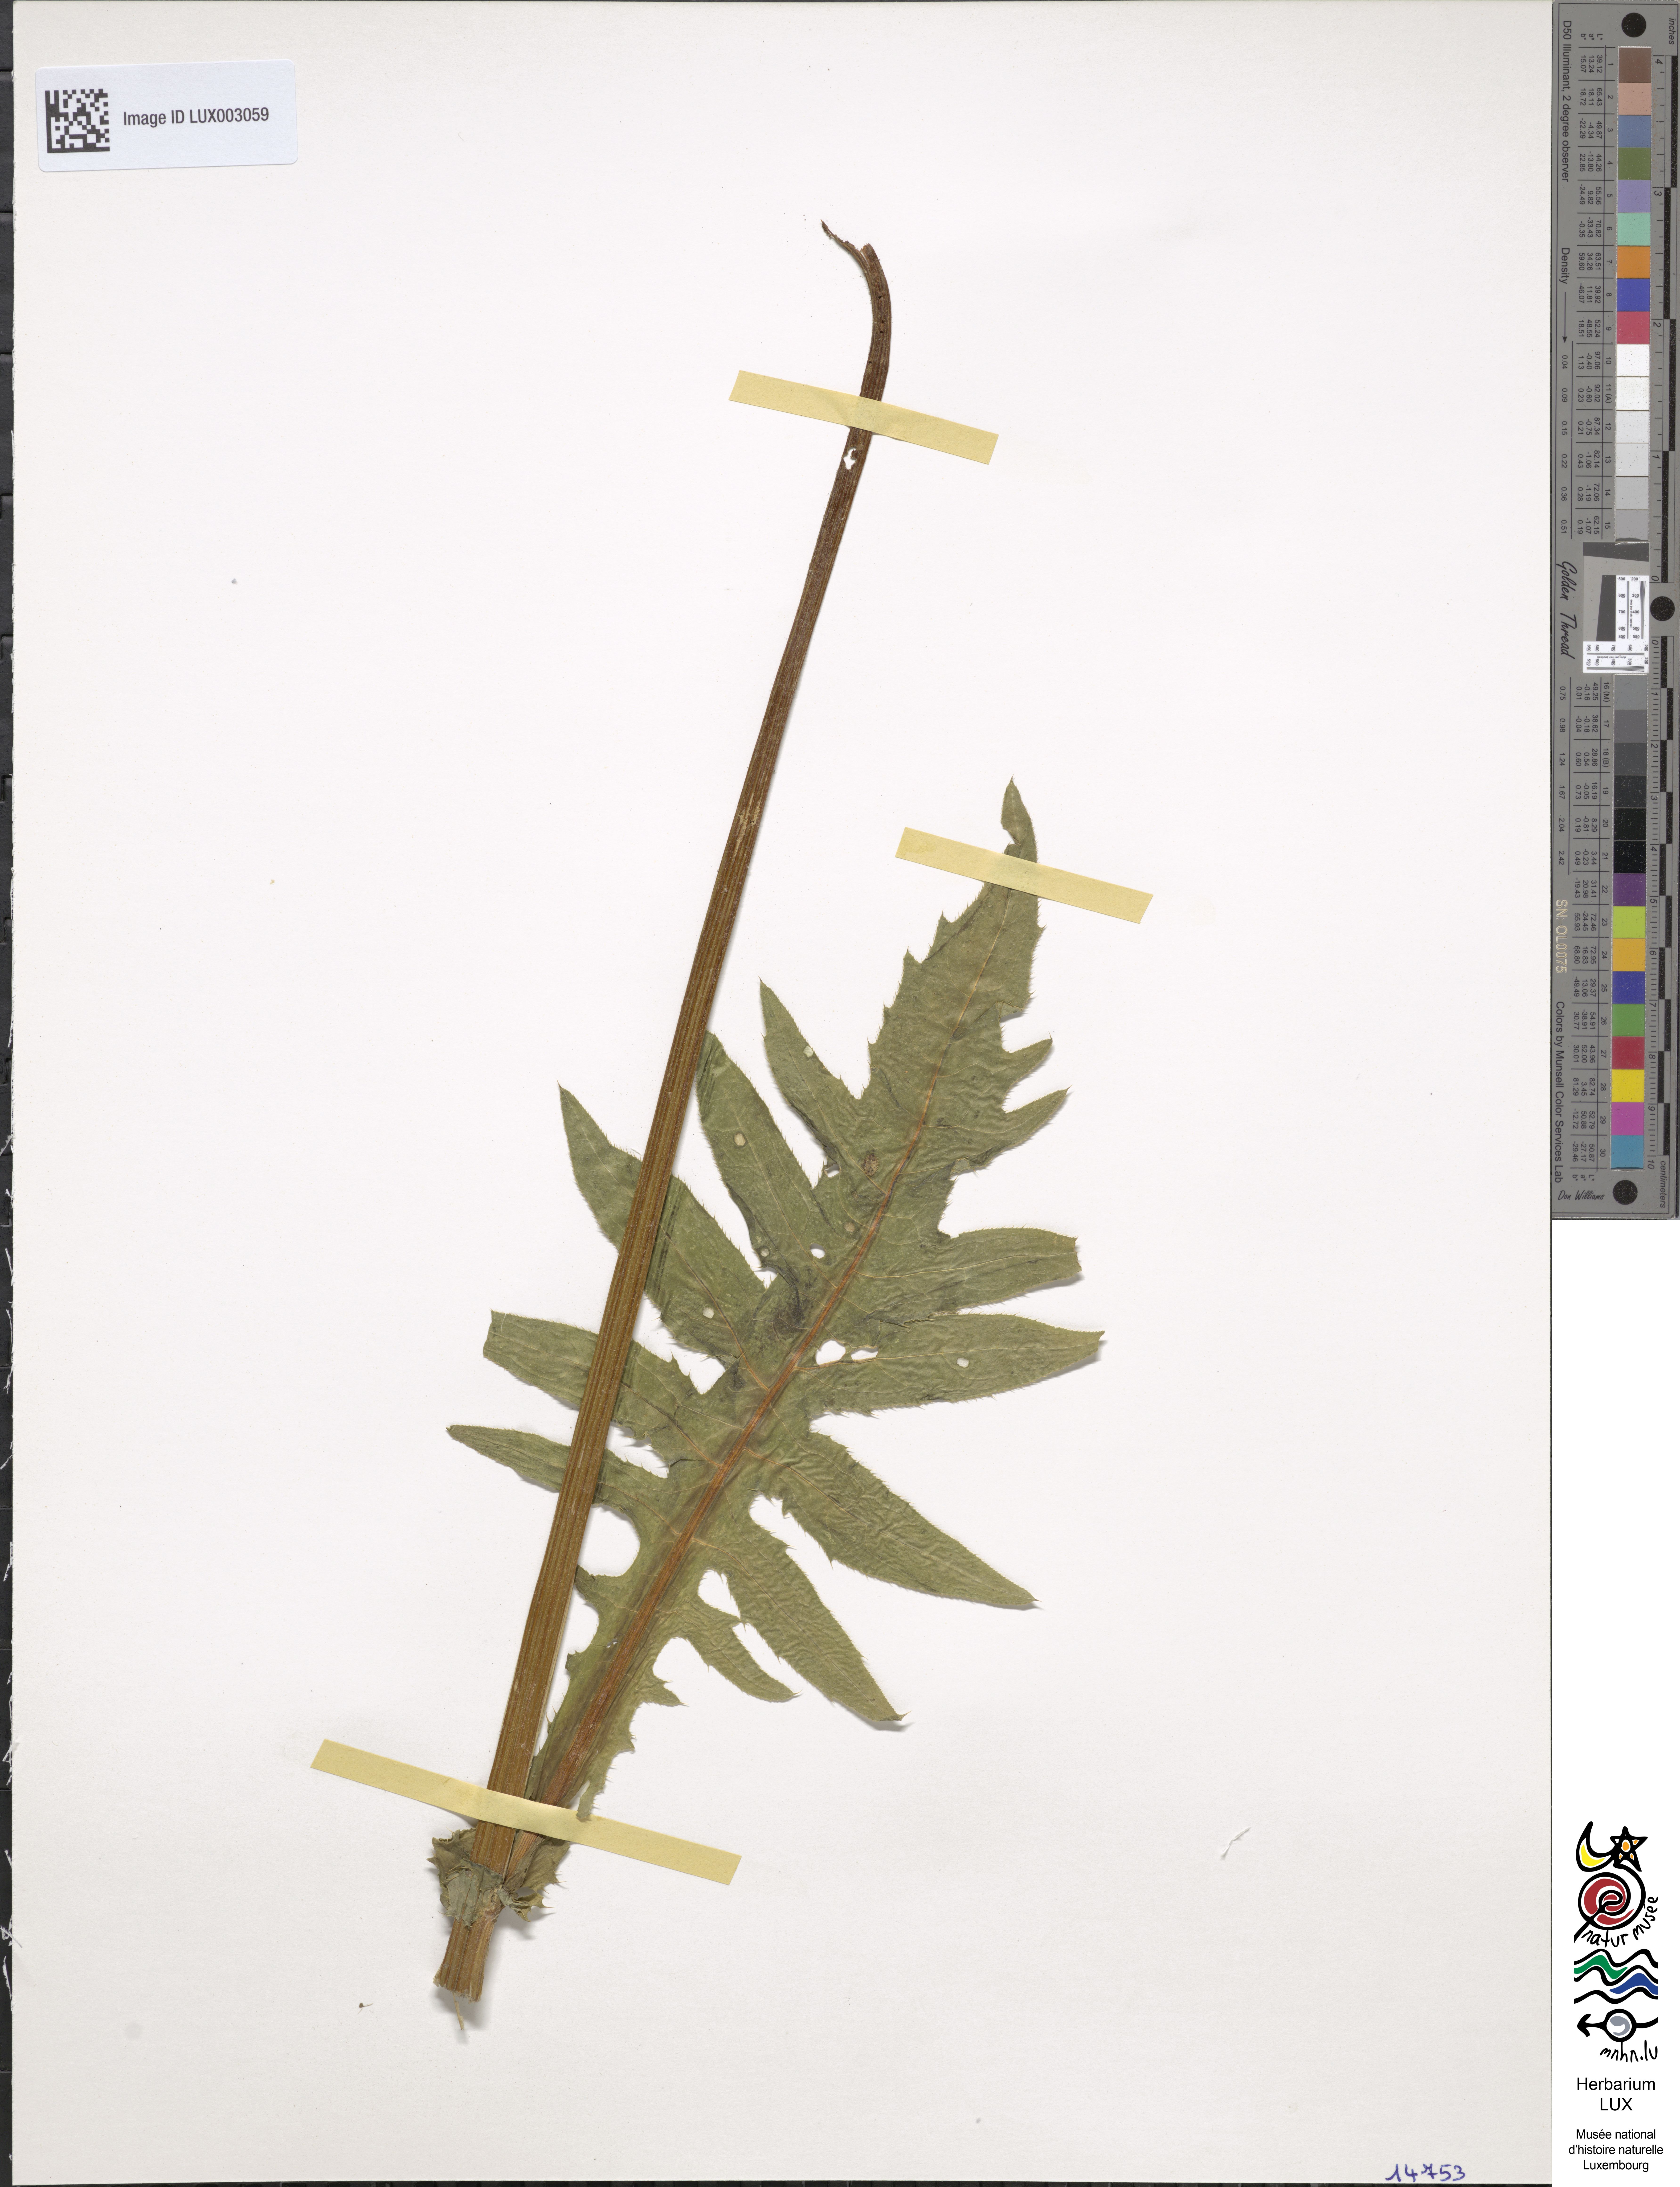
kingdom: Plantae
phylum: Tracheophyta
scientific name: Tracheophyta
